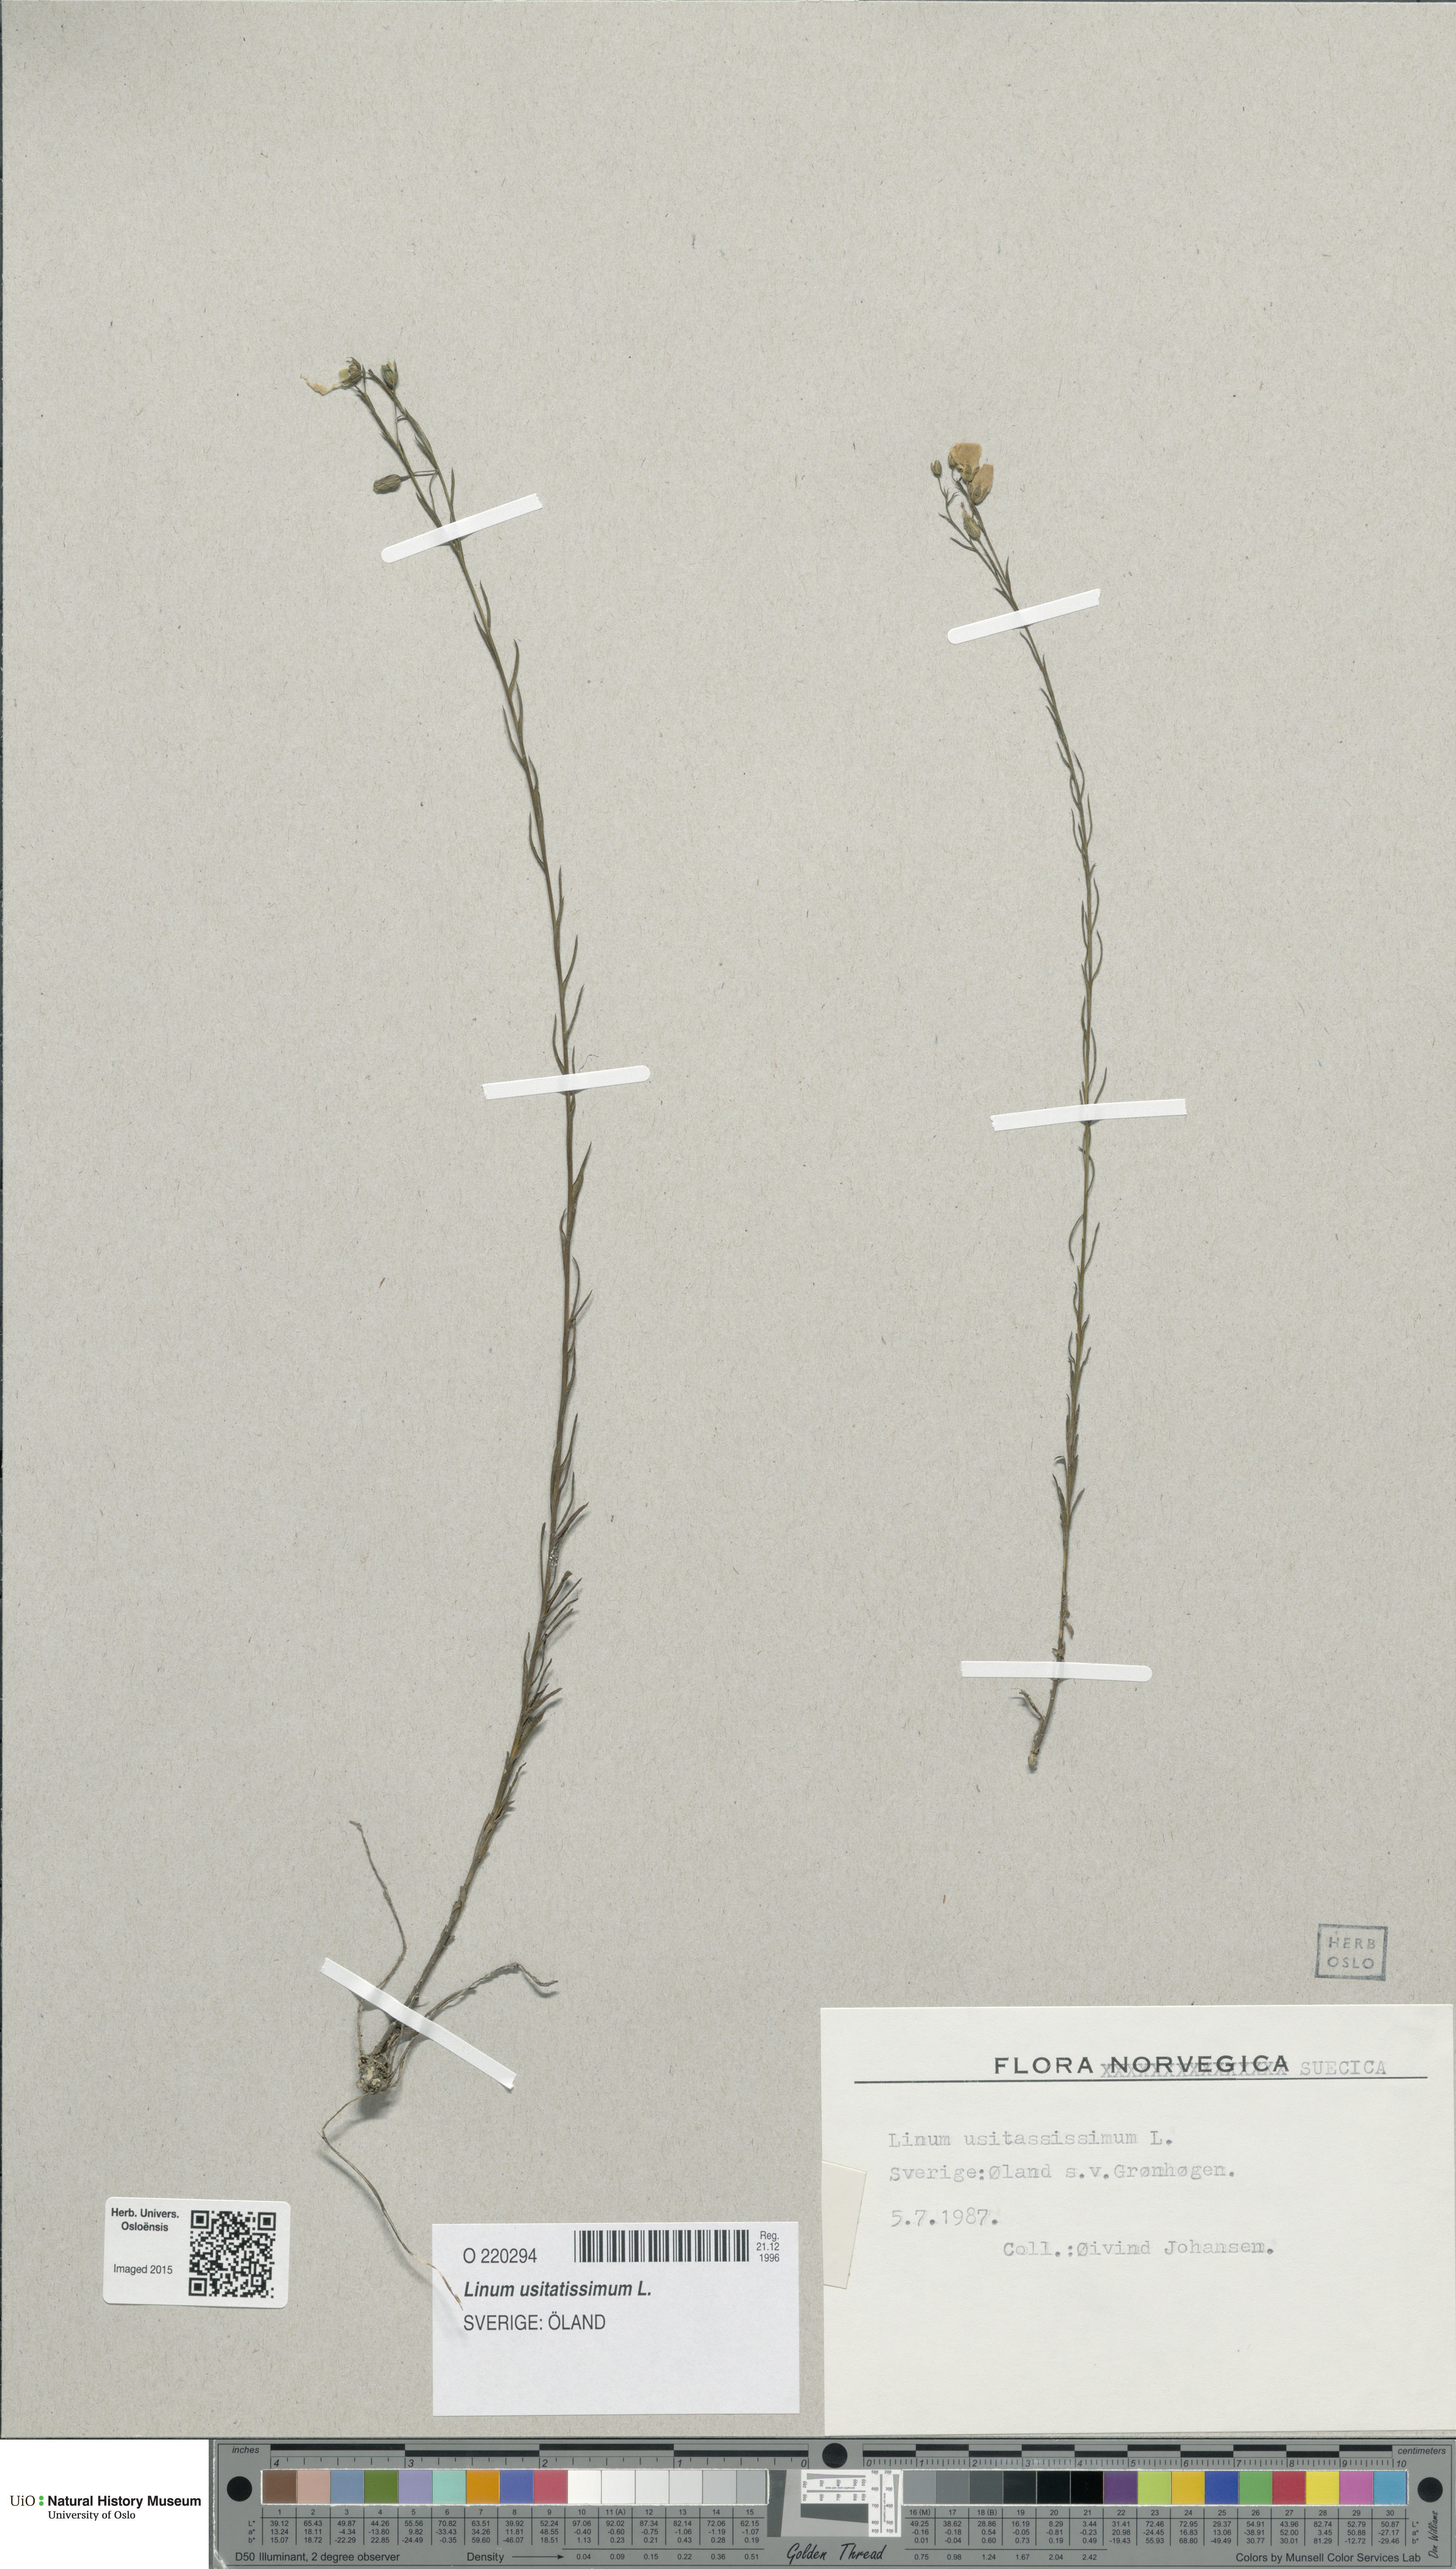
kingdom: Plantae
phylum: Tracheophyta
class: Magnoliopsida
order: Malpighiales
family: Linaceae
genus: Linum
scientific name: Linum usitatissimum
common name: Flax
